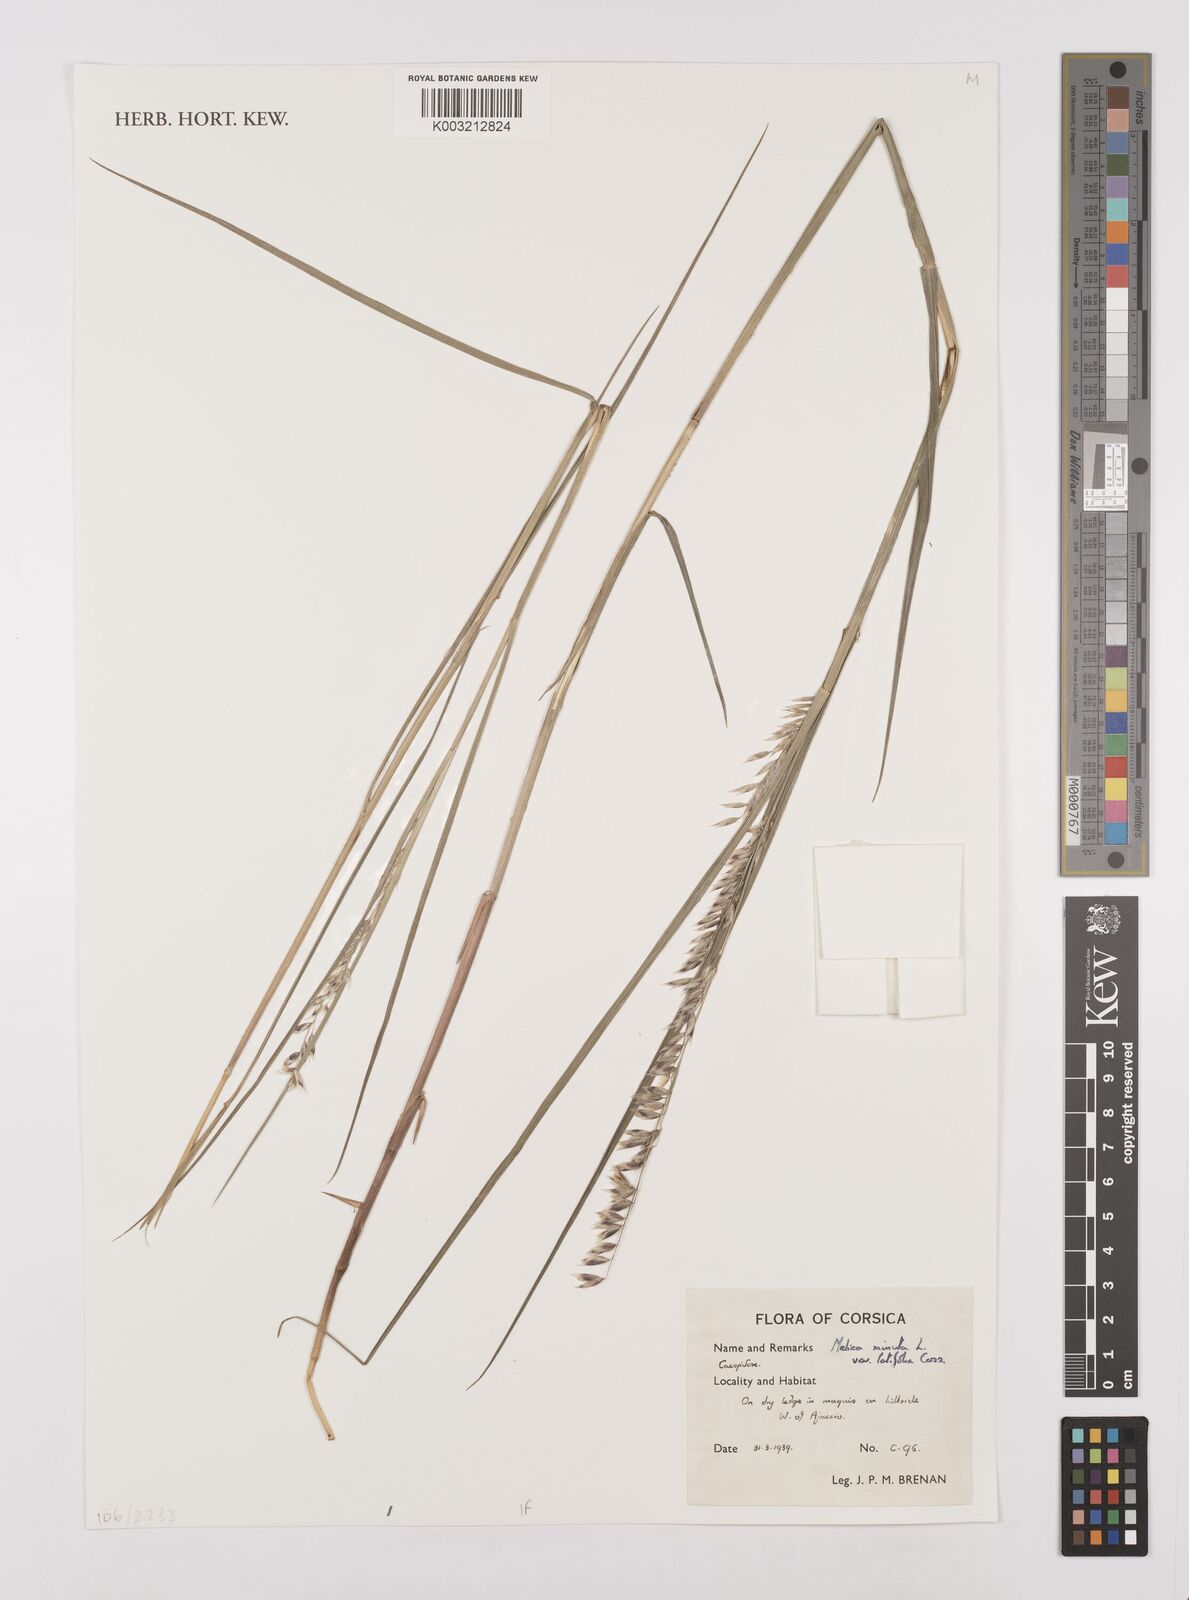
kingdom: Plantae
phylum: Tracheophyta
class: Liliopsida
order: Poales
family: Poaceae
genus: Melica
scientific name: Melica minuta
